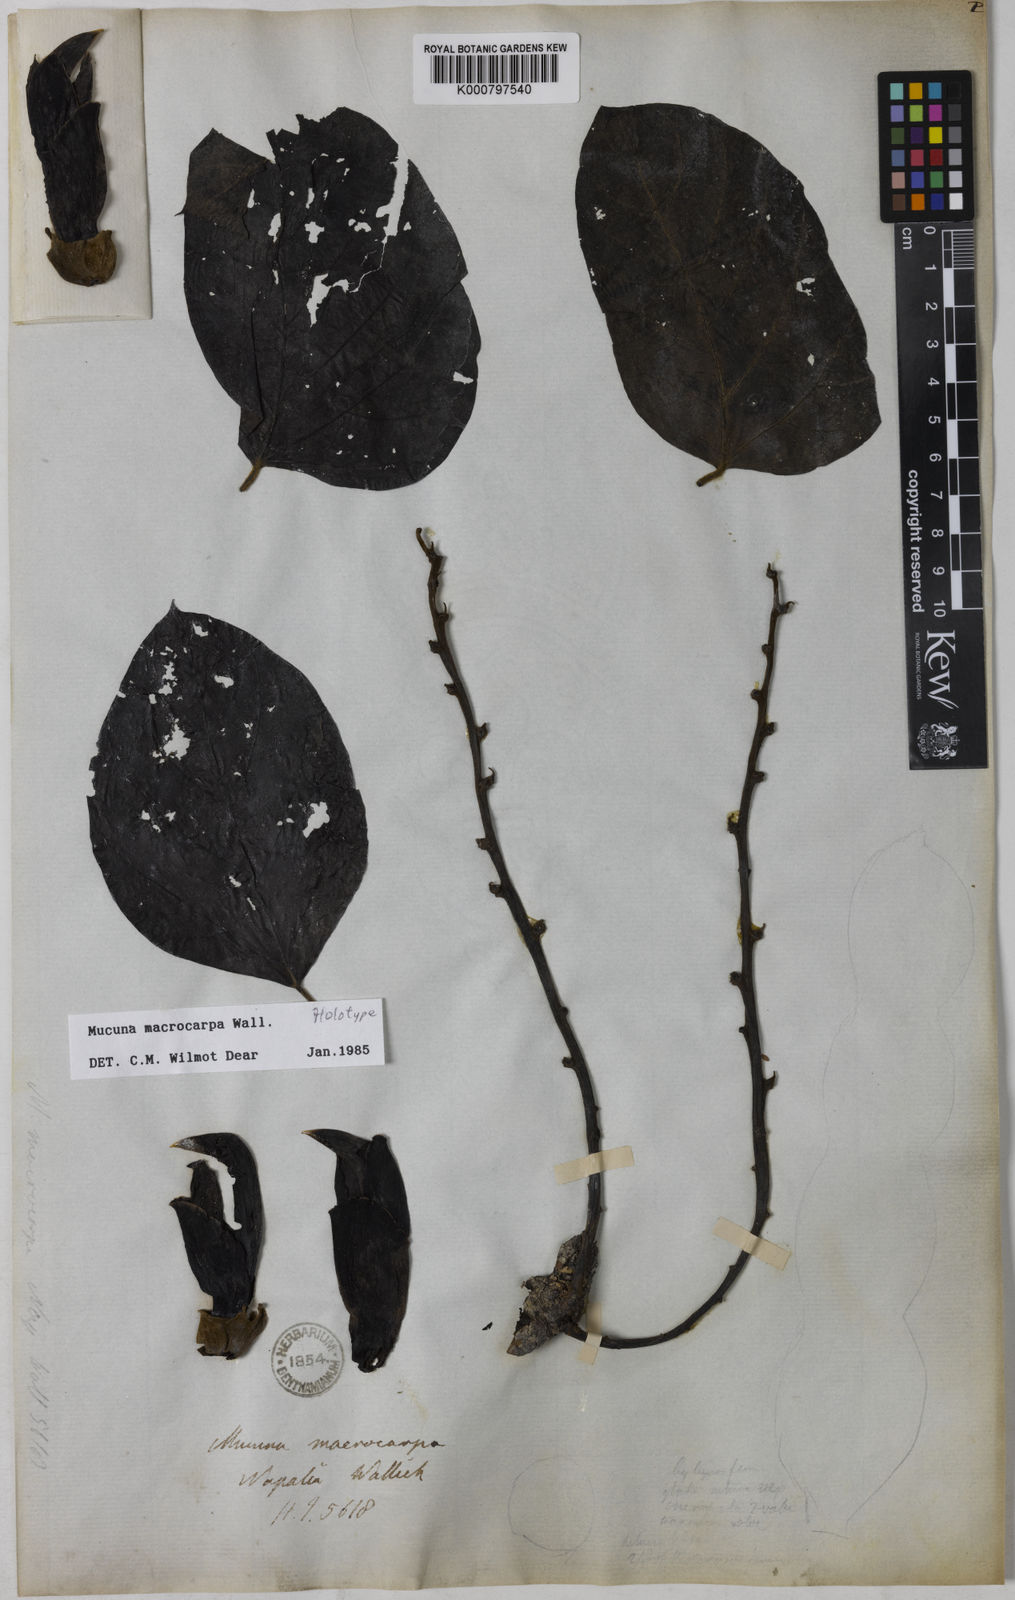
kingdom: Plantae
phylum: Tracheophyta
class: Magnoliopsida
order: Fabales
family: Fabaceae
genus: Mucuna
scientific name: Mucuna macrocarpa
